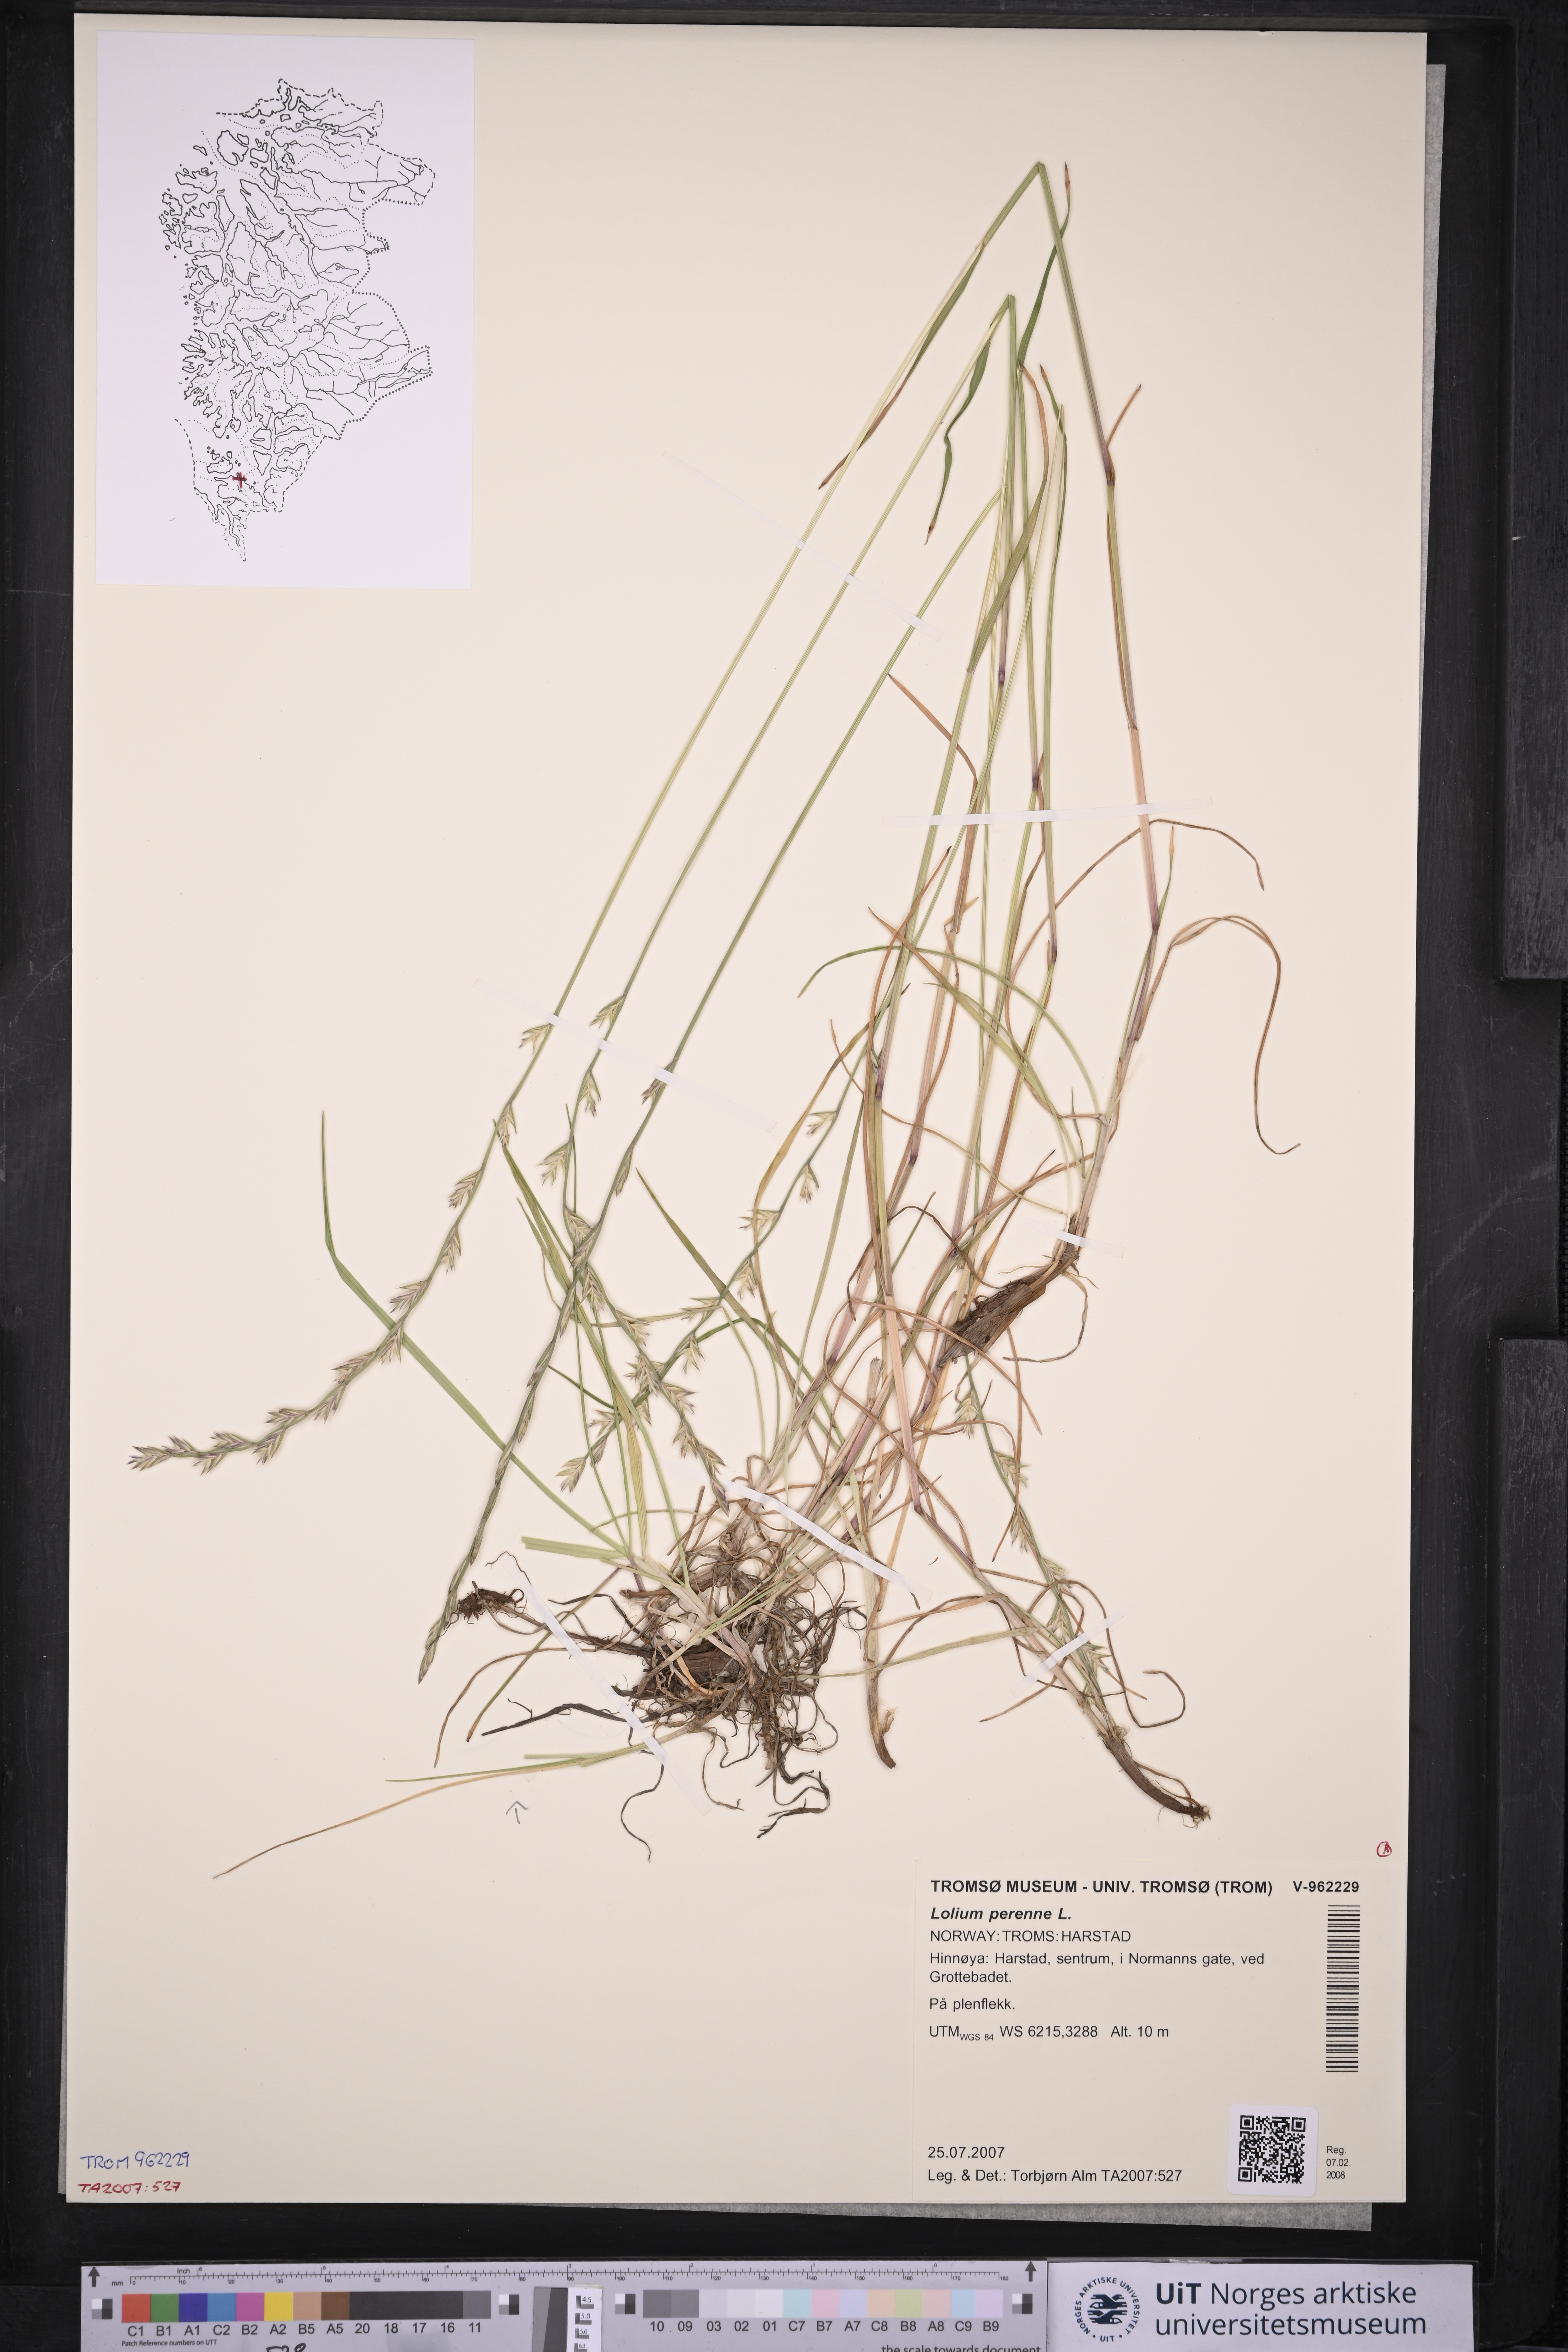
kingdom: Plantae
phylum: Tracheophyta
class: Liliopsida
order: Poales
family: Poaceae
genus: Lolium
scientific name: Lolium perenne
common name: Perennial ryegrass
